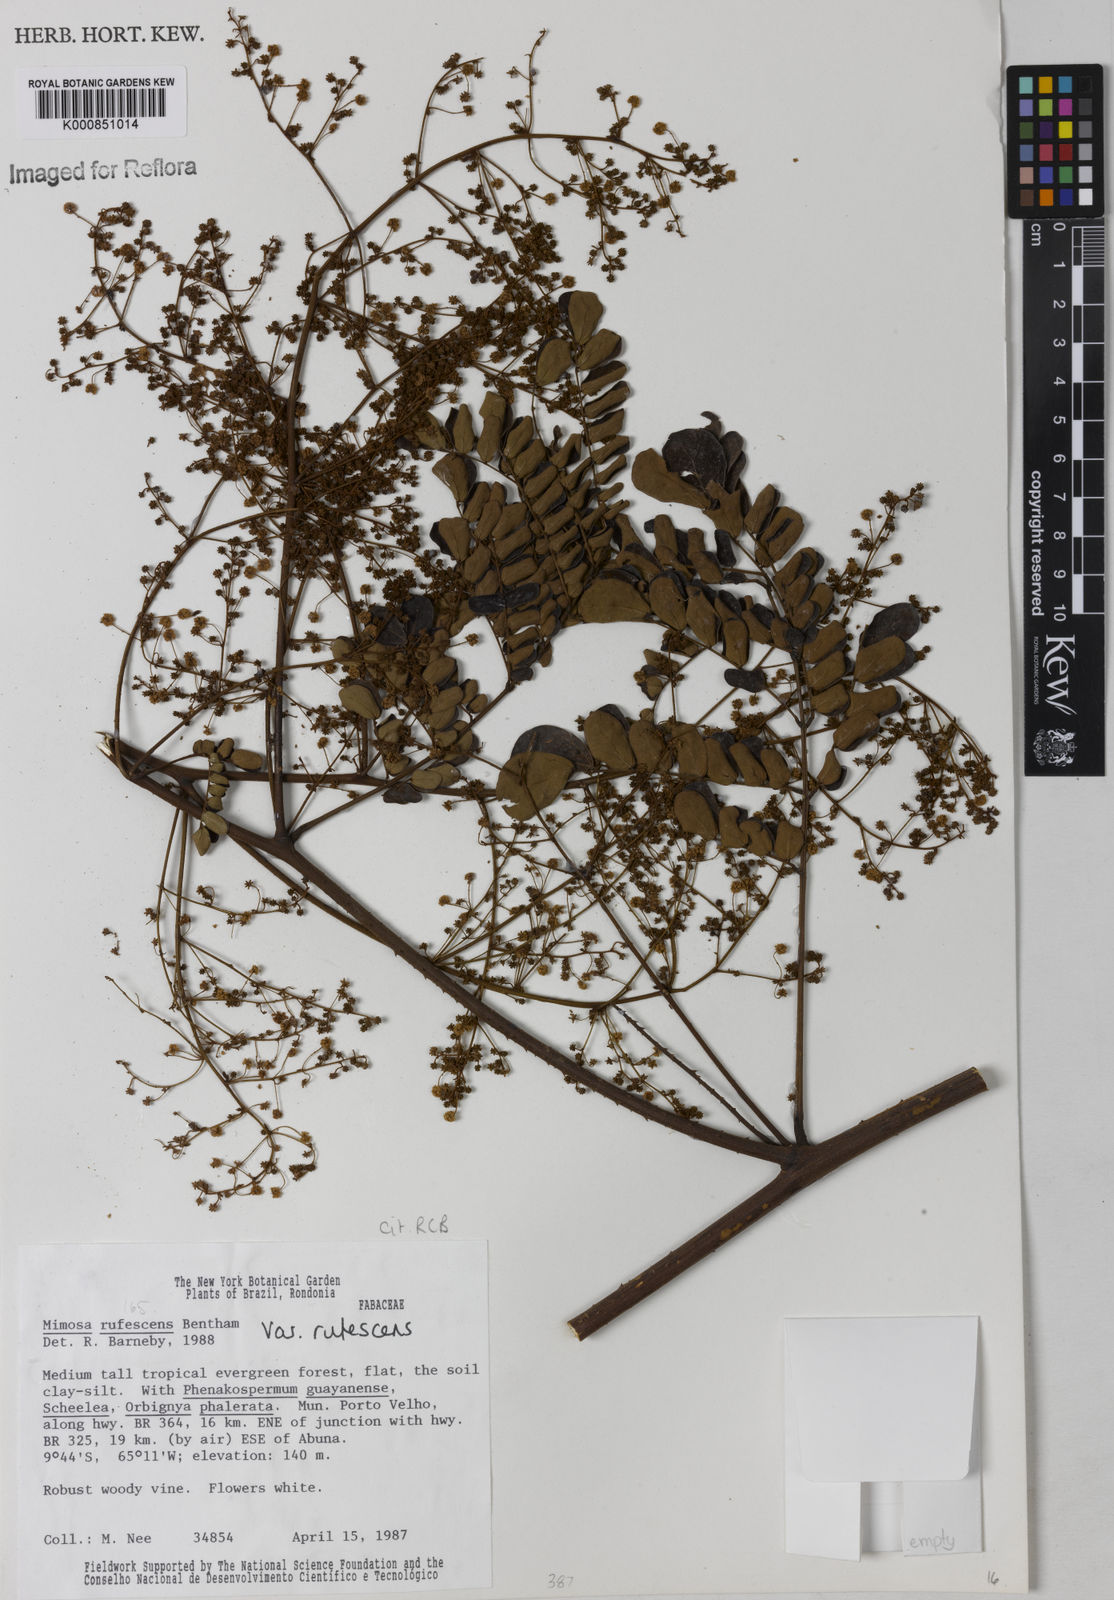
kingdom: Plantae
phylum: Tracheophyta
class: Magnoliopsida
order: Fabales
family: Fabaceae
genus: Mimosa
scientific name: Mimosa rufescens
